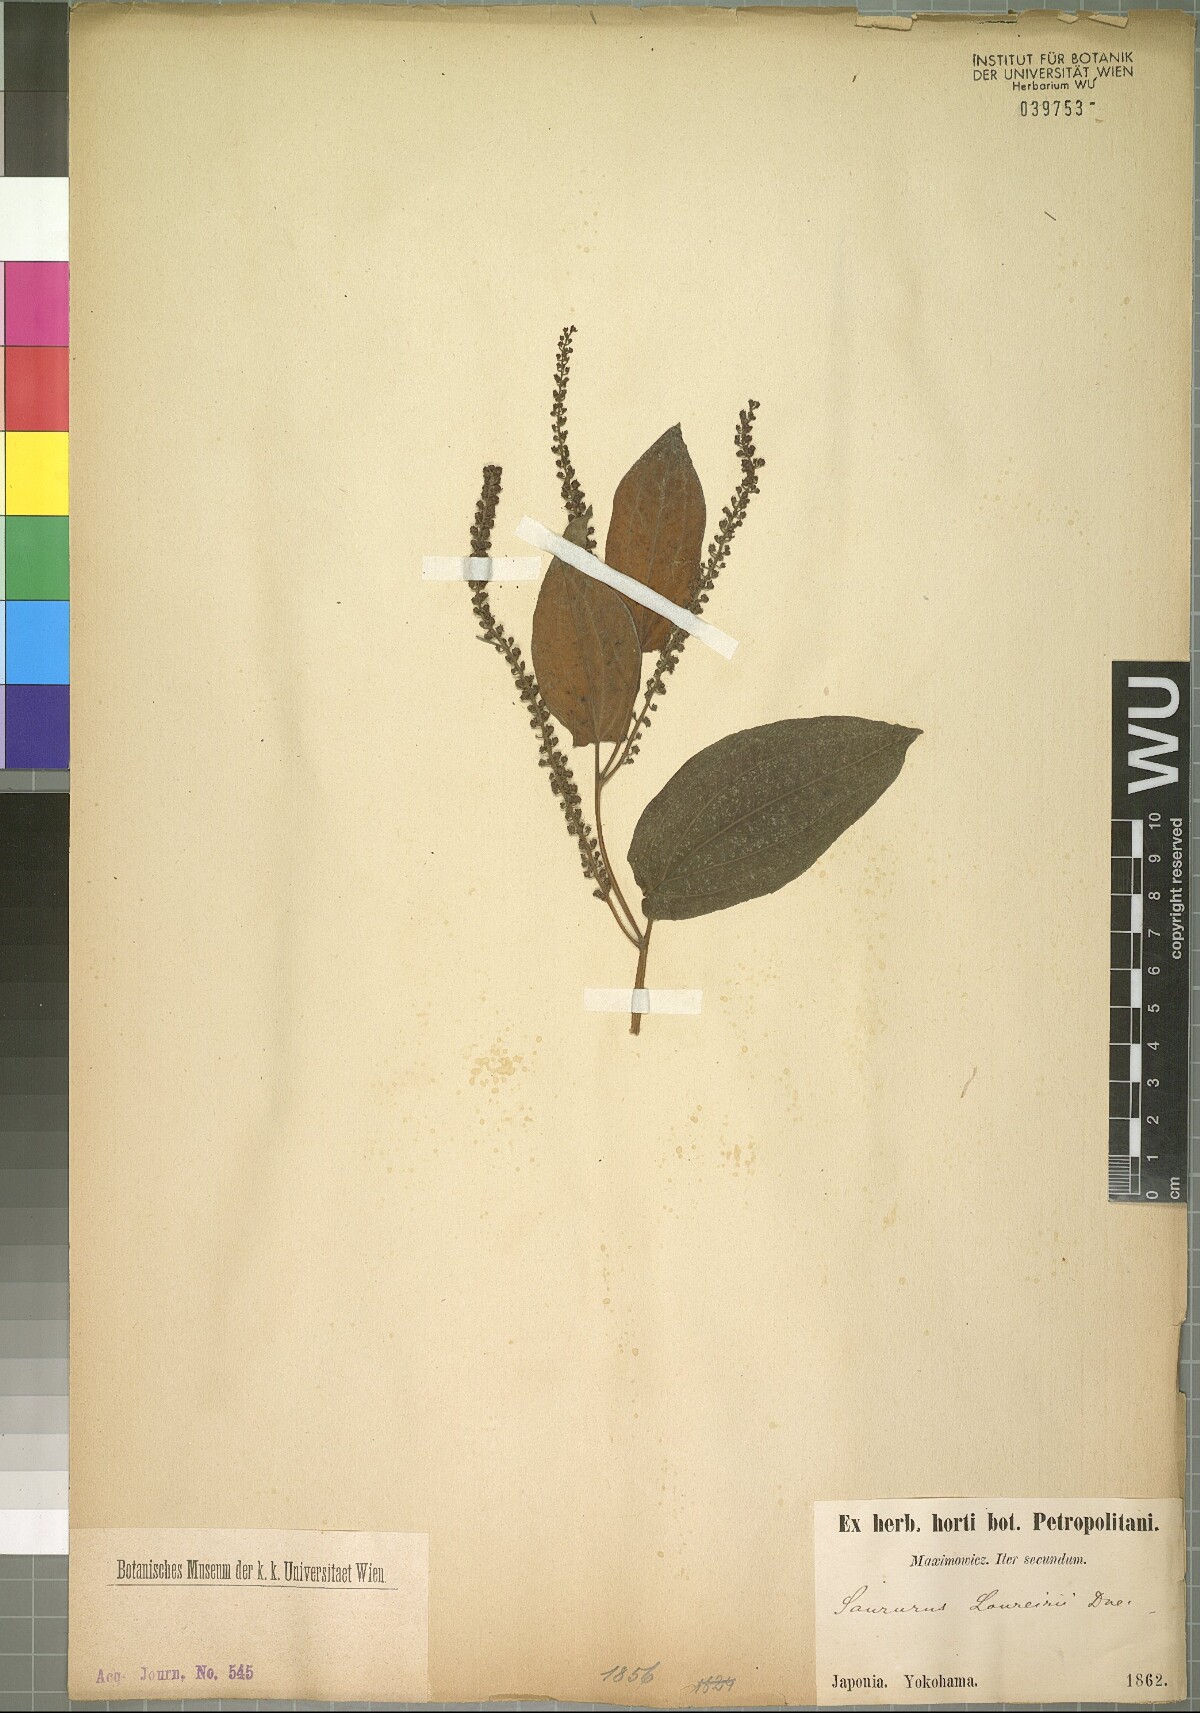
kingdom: Plantae
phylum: Tracheophyta
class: Magnoliopsida
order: Piperales
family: Saururaceae
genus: Saururus
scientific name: Saururus chinensis
